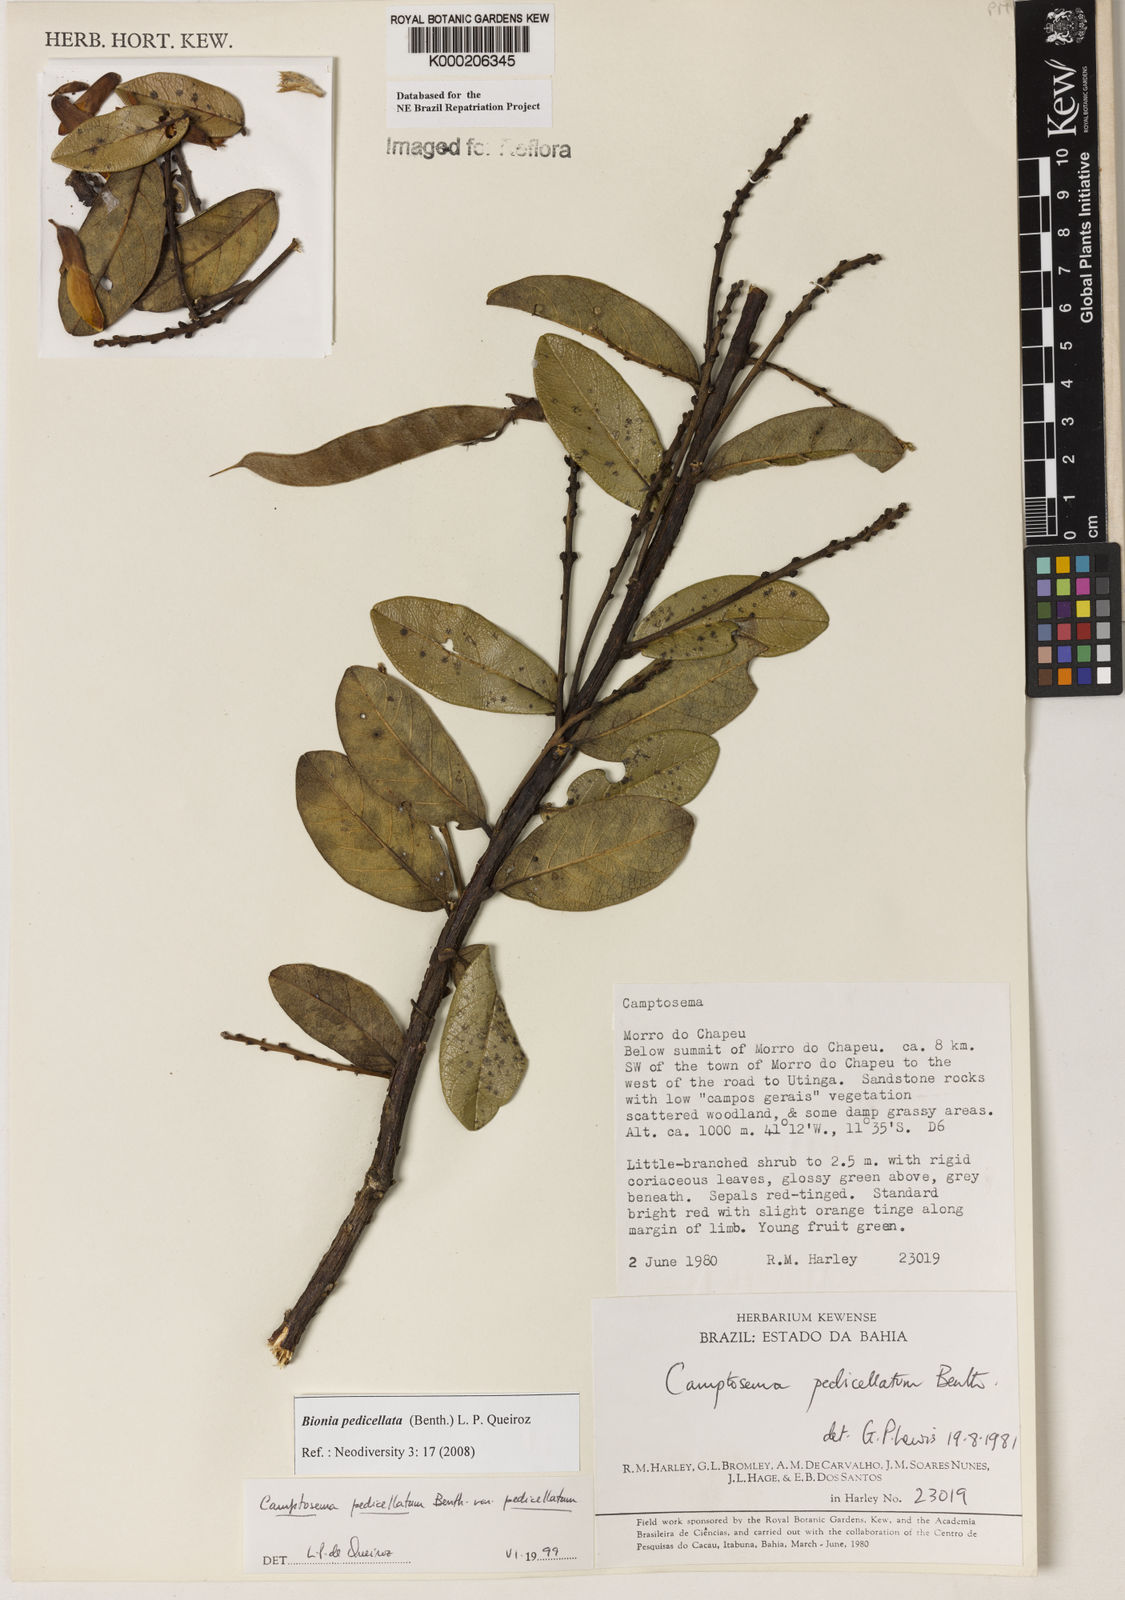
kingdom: Plantae
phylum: Tracheophyta
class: Magnoliopsida
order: Fabales
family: Fabaceae
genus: Camptosema
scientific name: Camptosema pedicellatum
